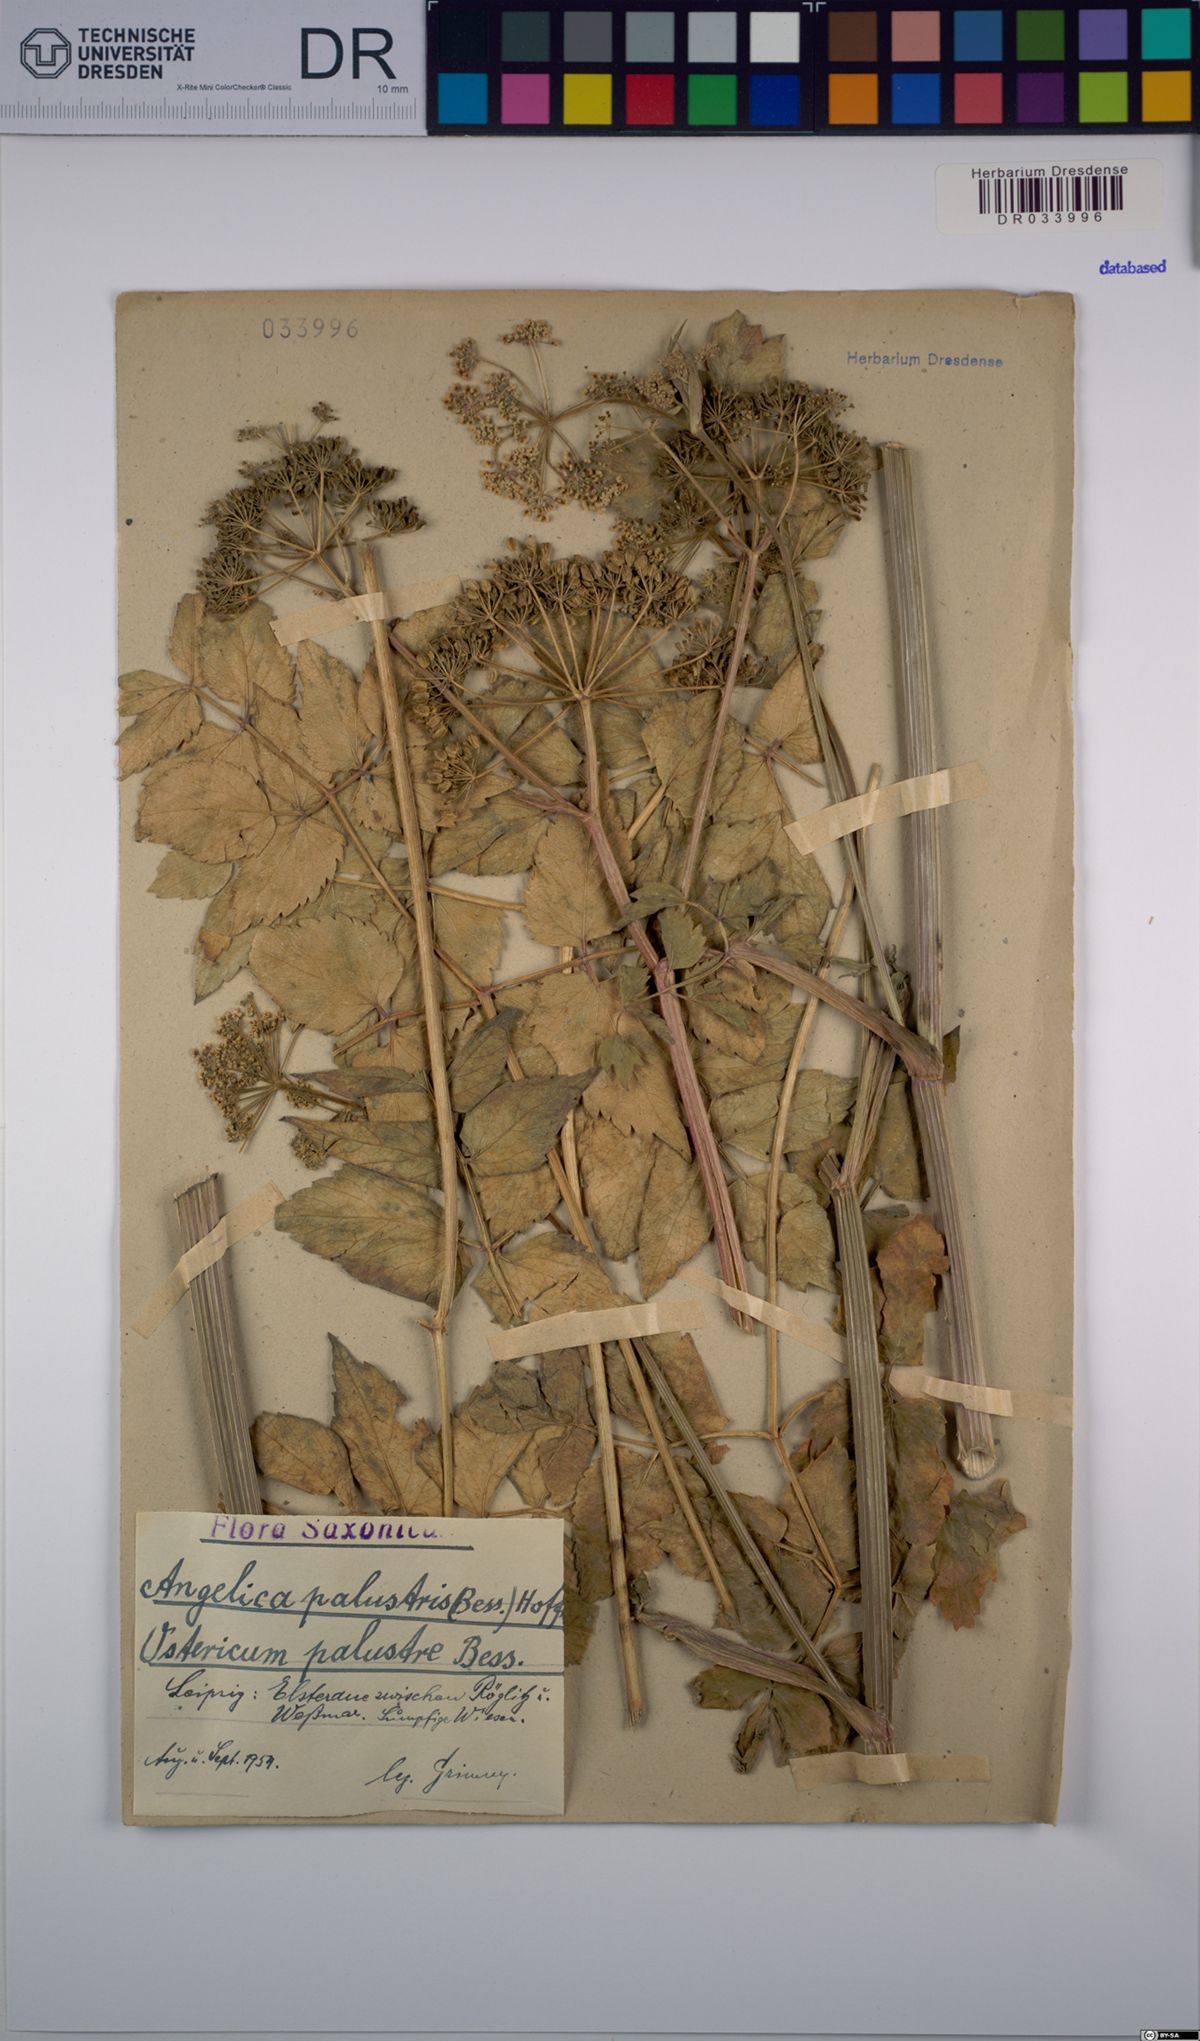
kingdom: Plantae
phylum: Tracheophyta
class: Magnoliopsida
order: Apiales
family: Apiaceae
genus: Ostericum
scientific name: Ostericum palustre
